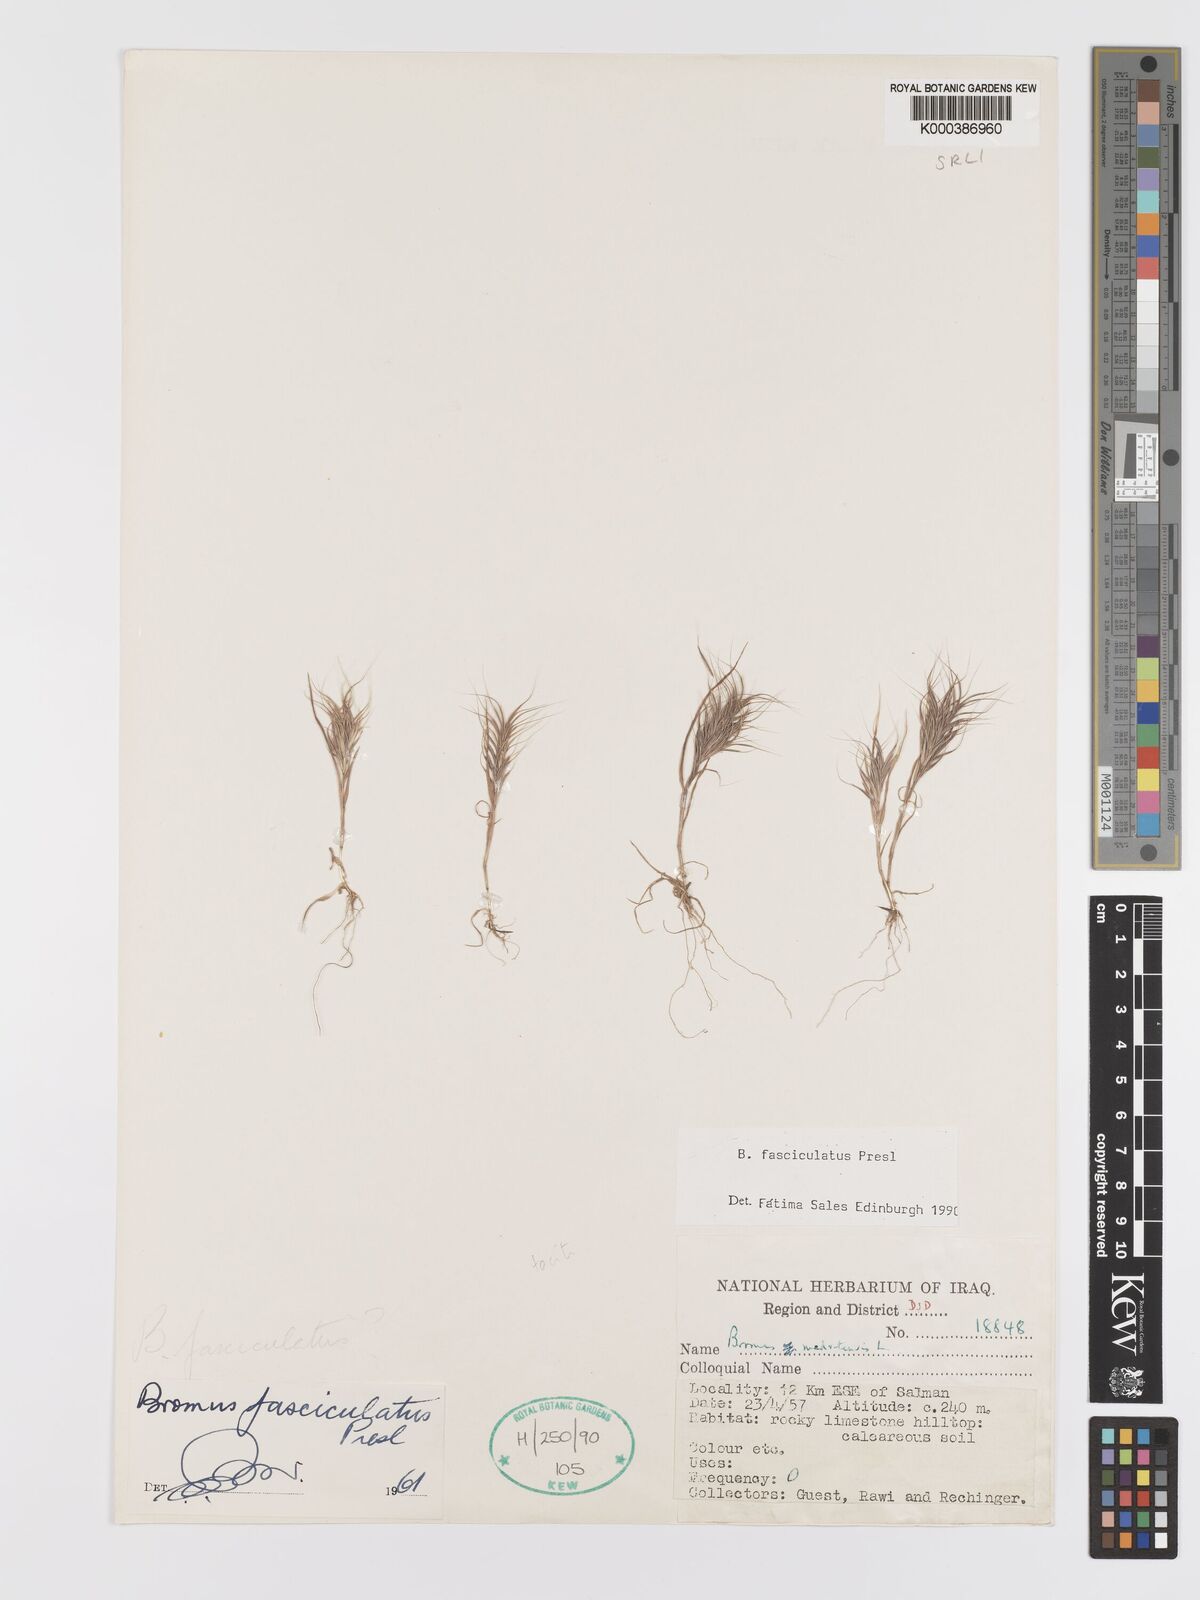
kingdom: Plantae
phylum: Tracheophyta
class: Liliopsida
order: Poales
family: Poaceae
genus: Bromus
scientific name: Bromus fasciculatus
